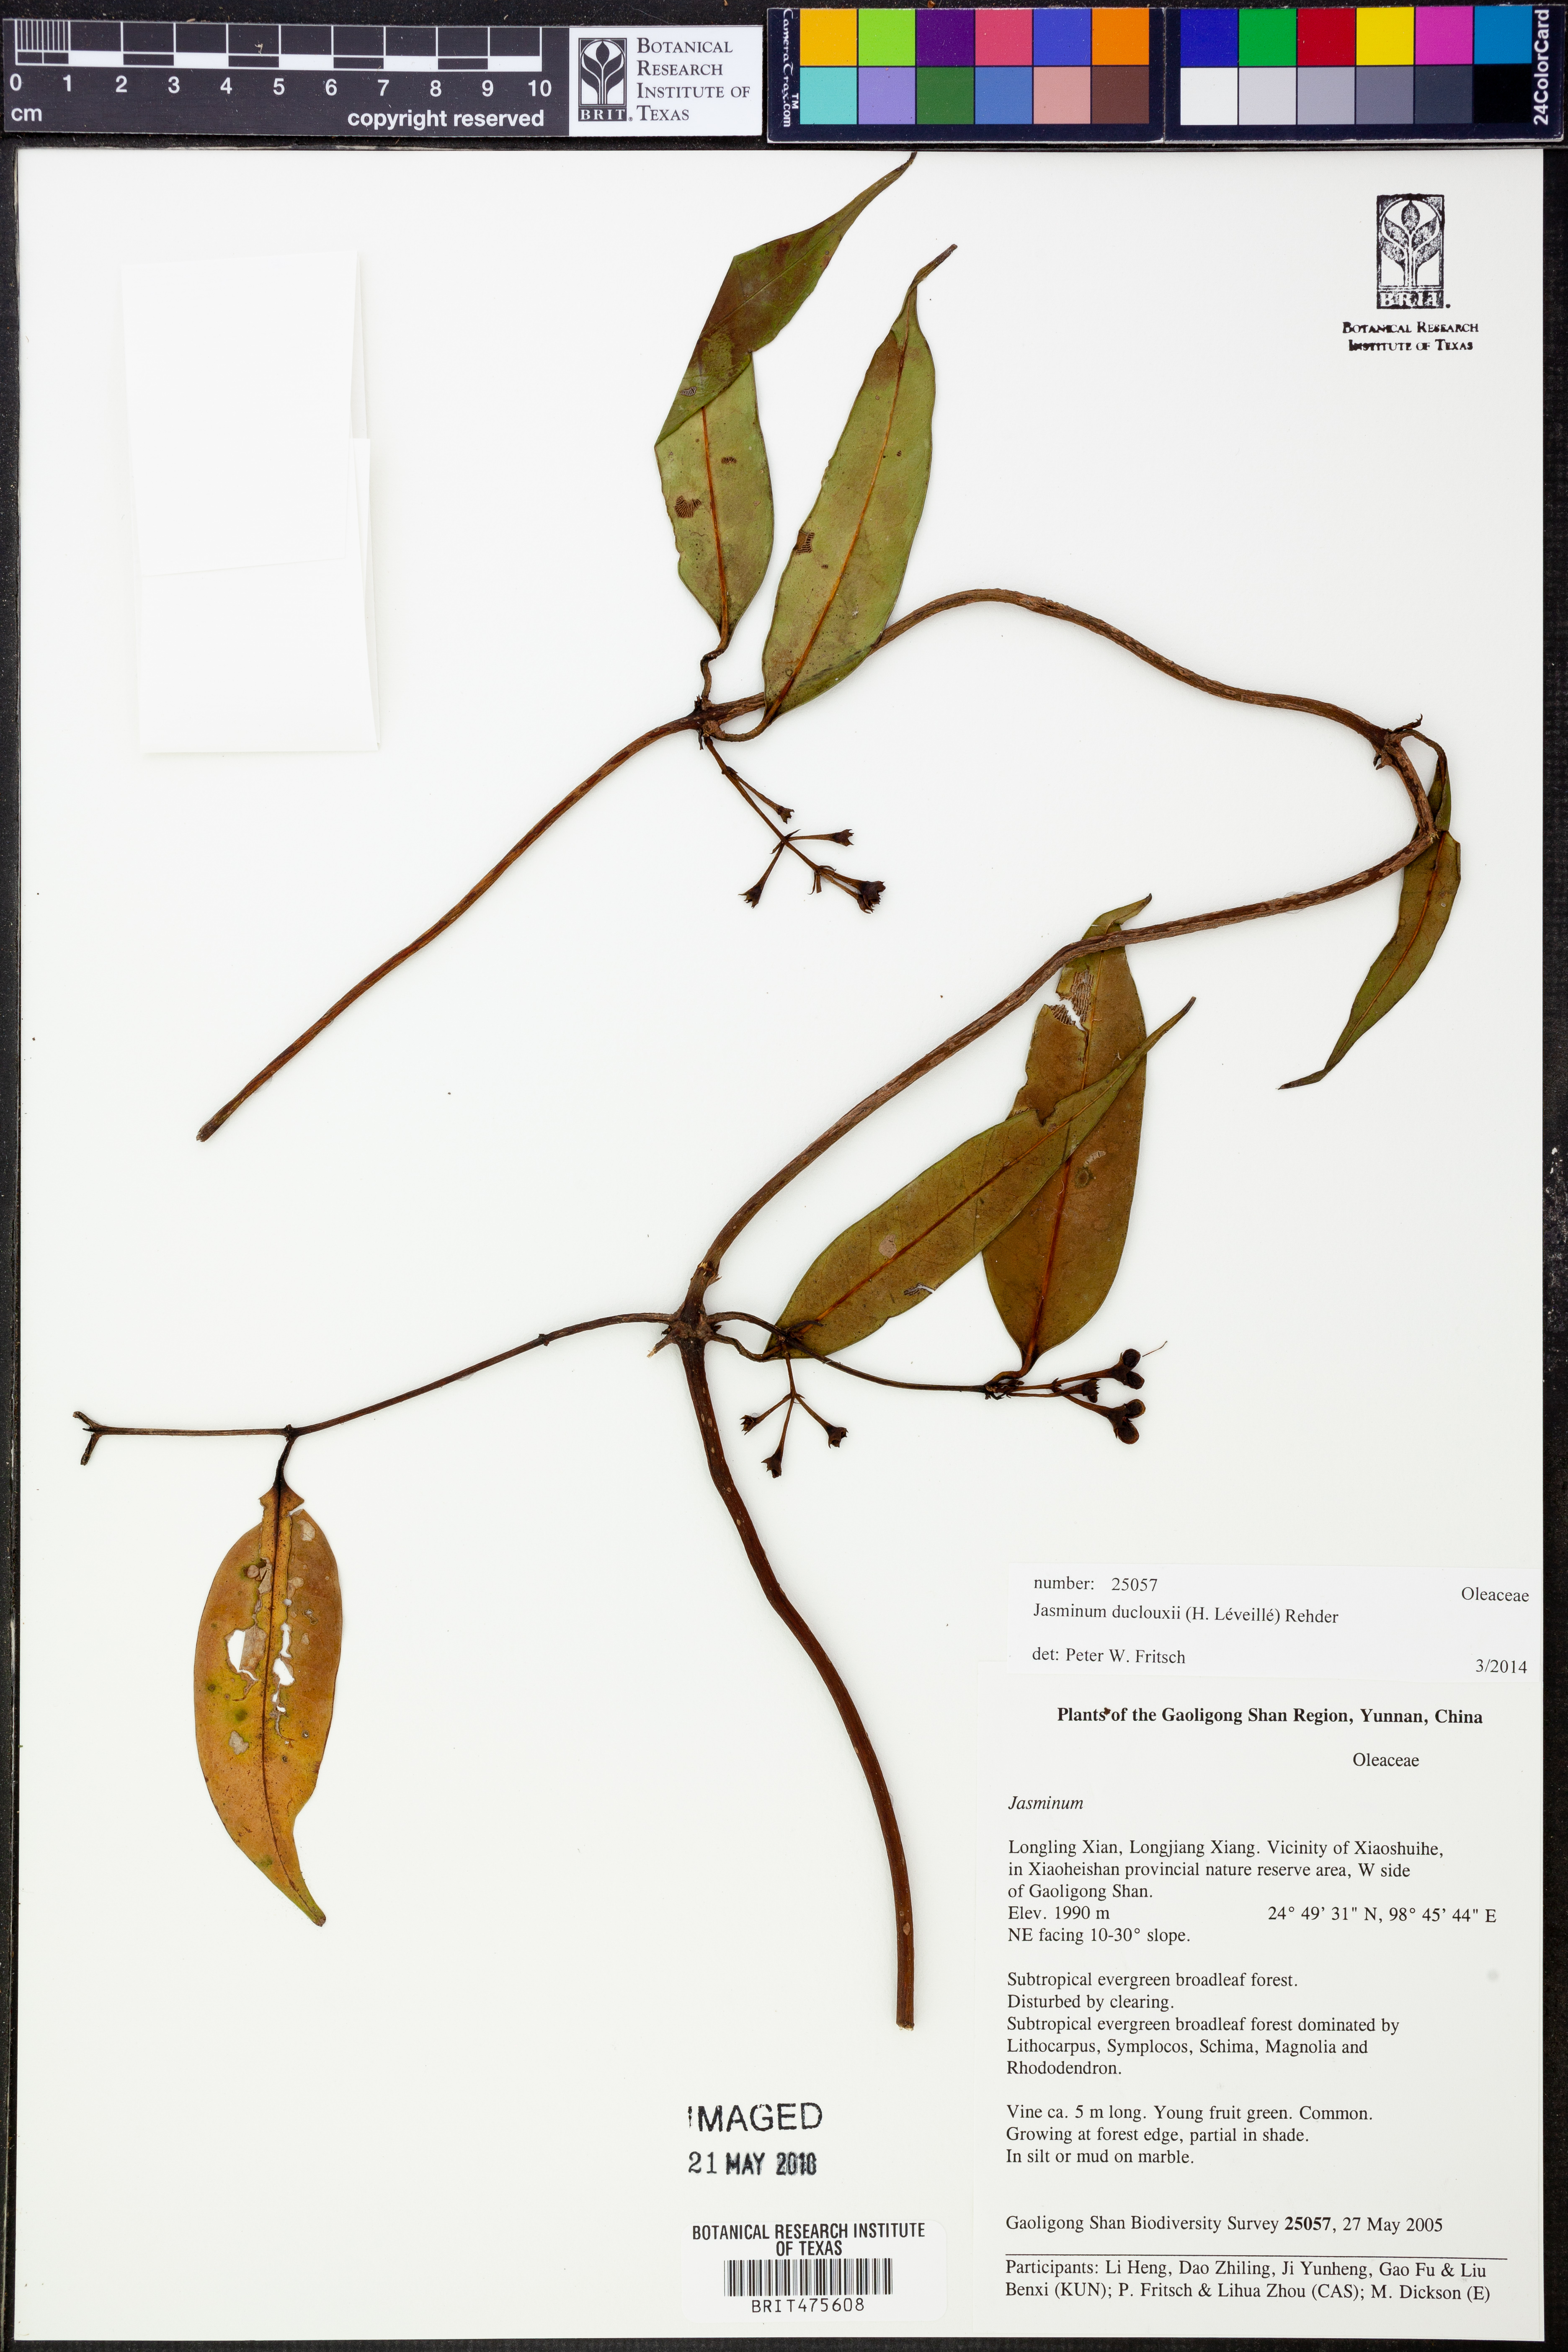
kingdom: Plantae
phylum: Tracheophyta
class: Magnoliopsida
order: Lamiales
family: Oleaceae
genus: Jasminum
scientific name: Jasminum duclouxii
